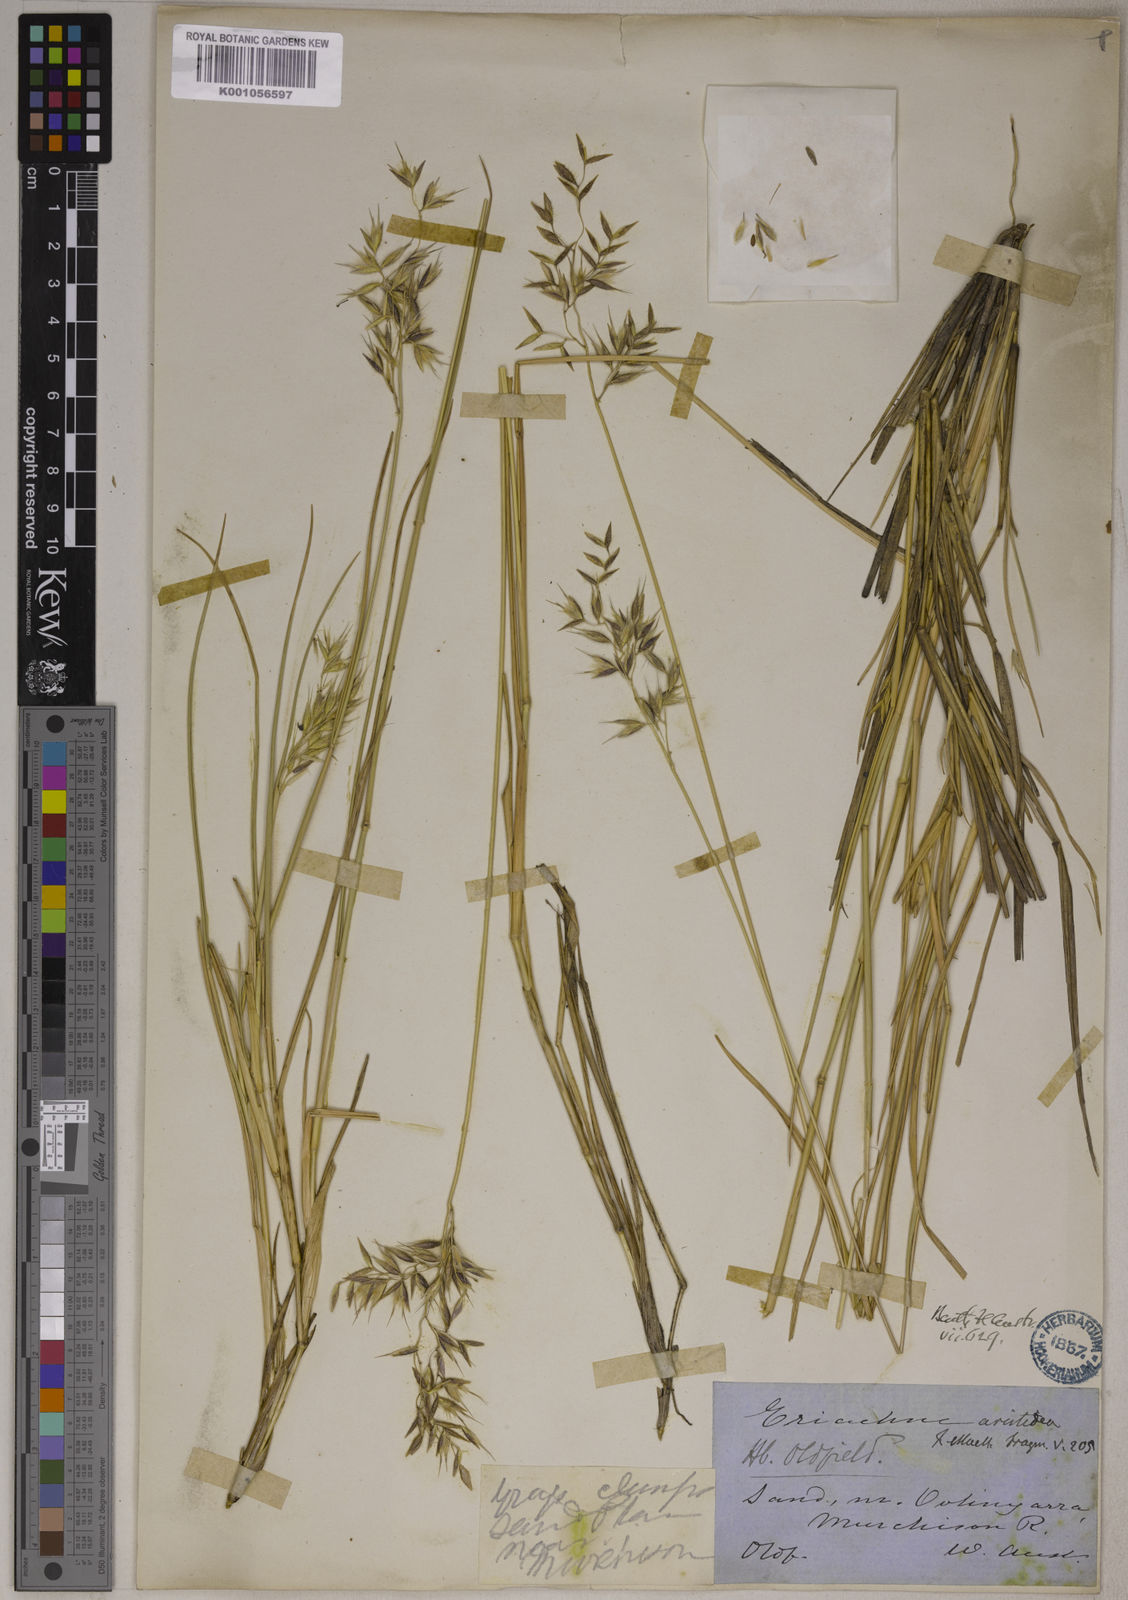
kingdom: Plantae
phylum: Tracheophyta
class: Liliopsida
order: Poales
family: Poaceae
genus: Eriachne
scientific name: Eriachne aristidea
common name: Three-awn wanderrie grass
